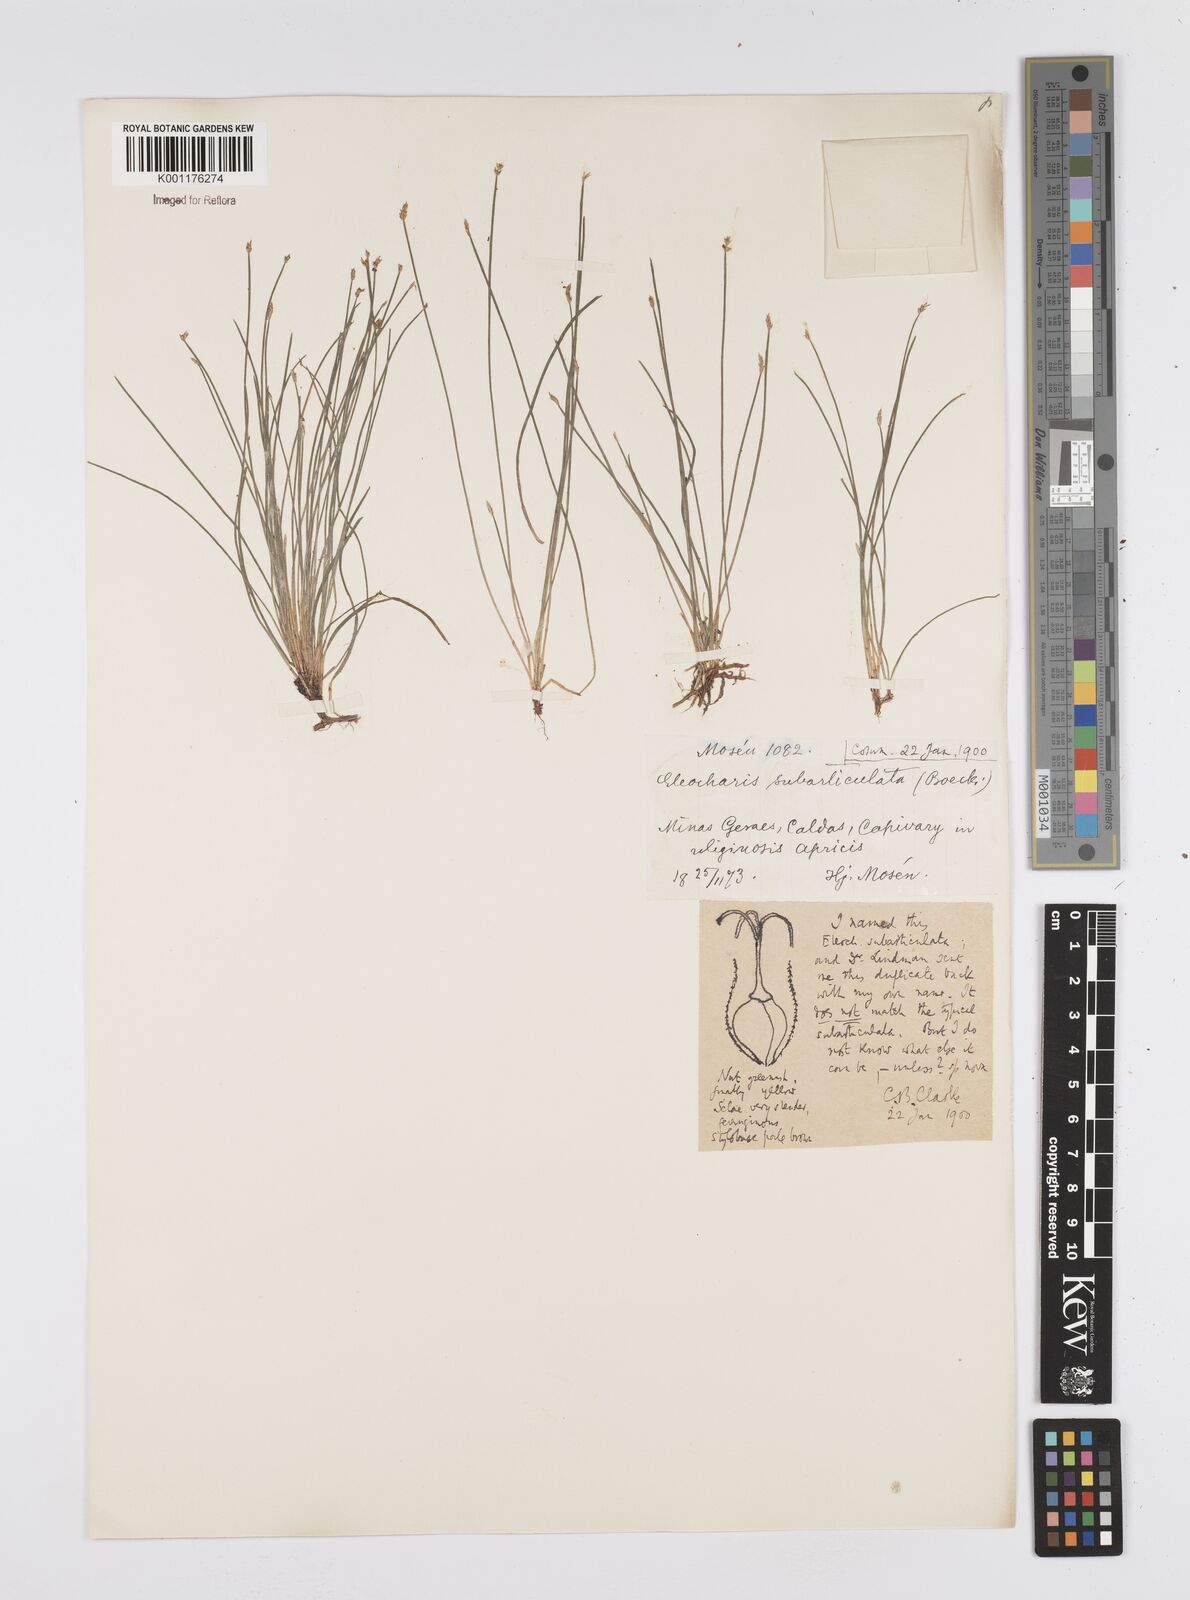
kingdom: Plantae
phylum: Tracheophyta
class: Liliopsida
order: Poales
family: Cyperaceae
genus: Eleocharis
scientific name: Eleocharis subarticulata
